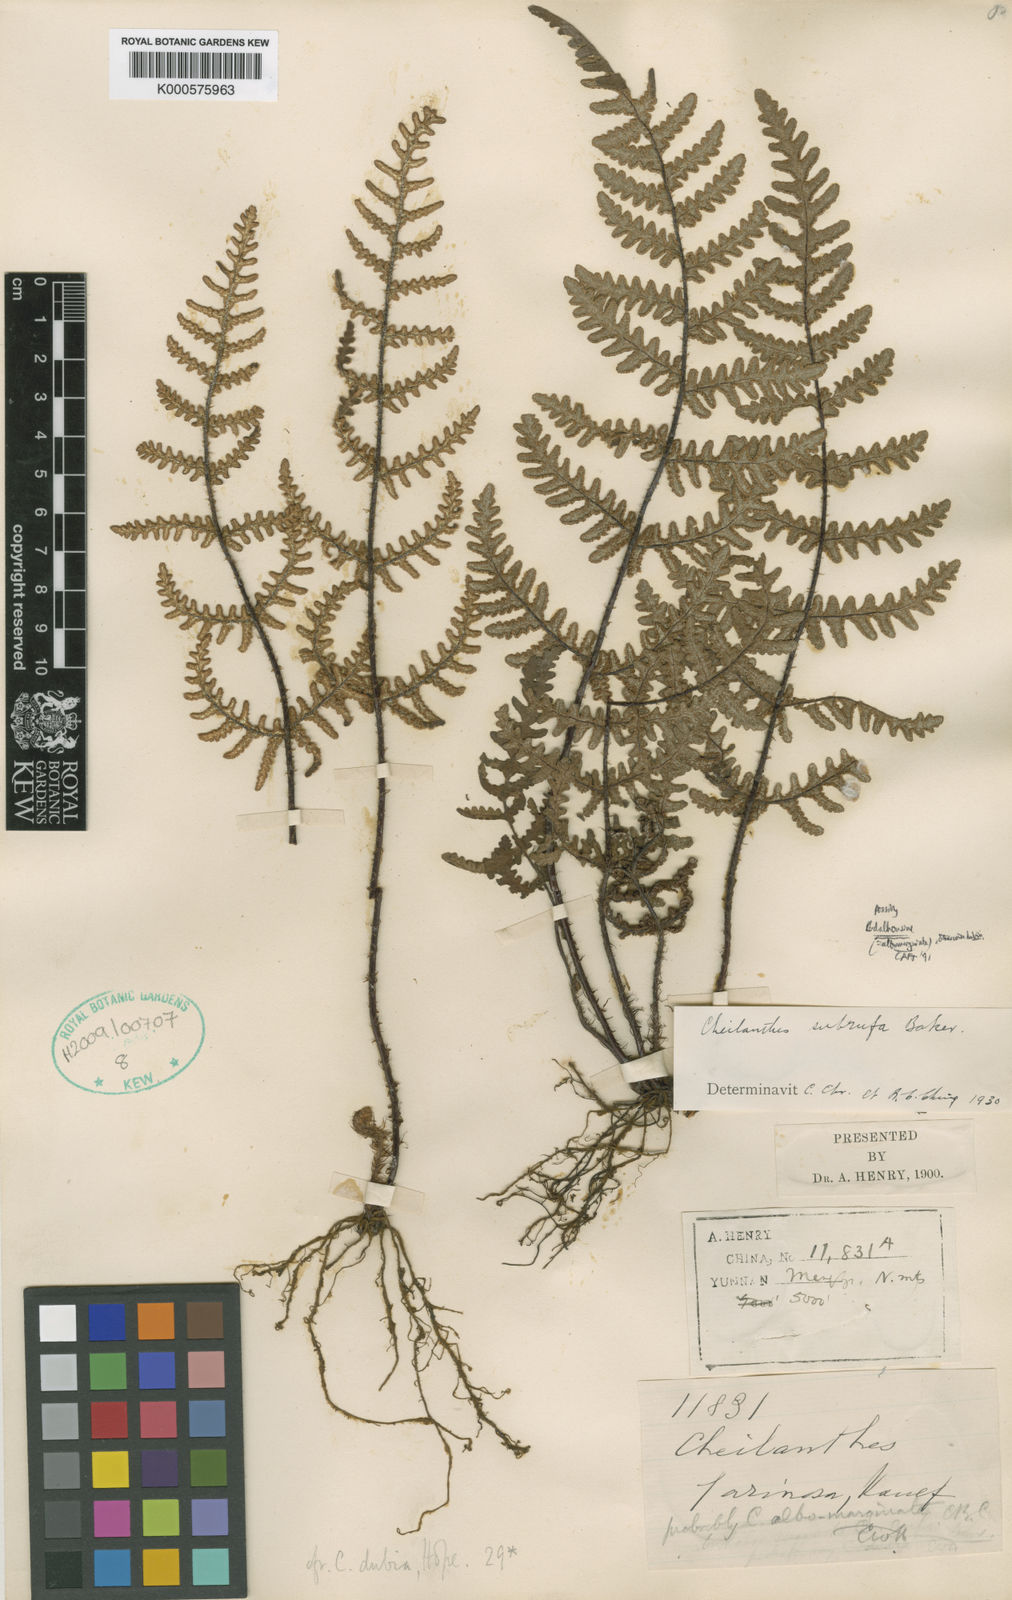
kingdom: Plantae
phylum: Tracheophyta
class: Polypodiopsida
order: Polypodiales
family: Pteridaceae
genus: Aleuritopteris
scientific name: Aleuritopteris dubia
